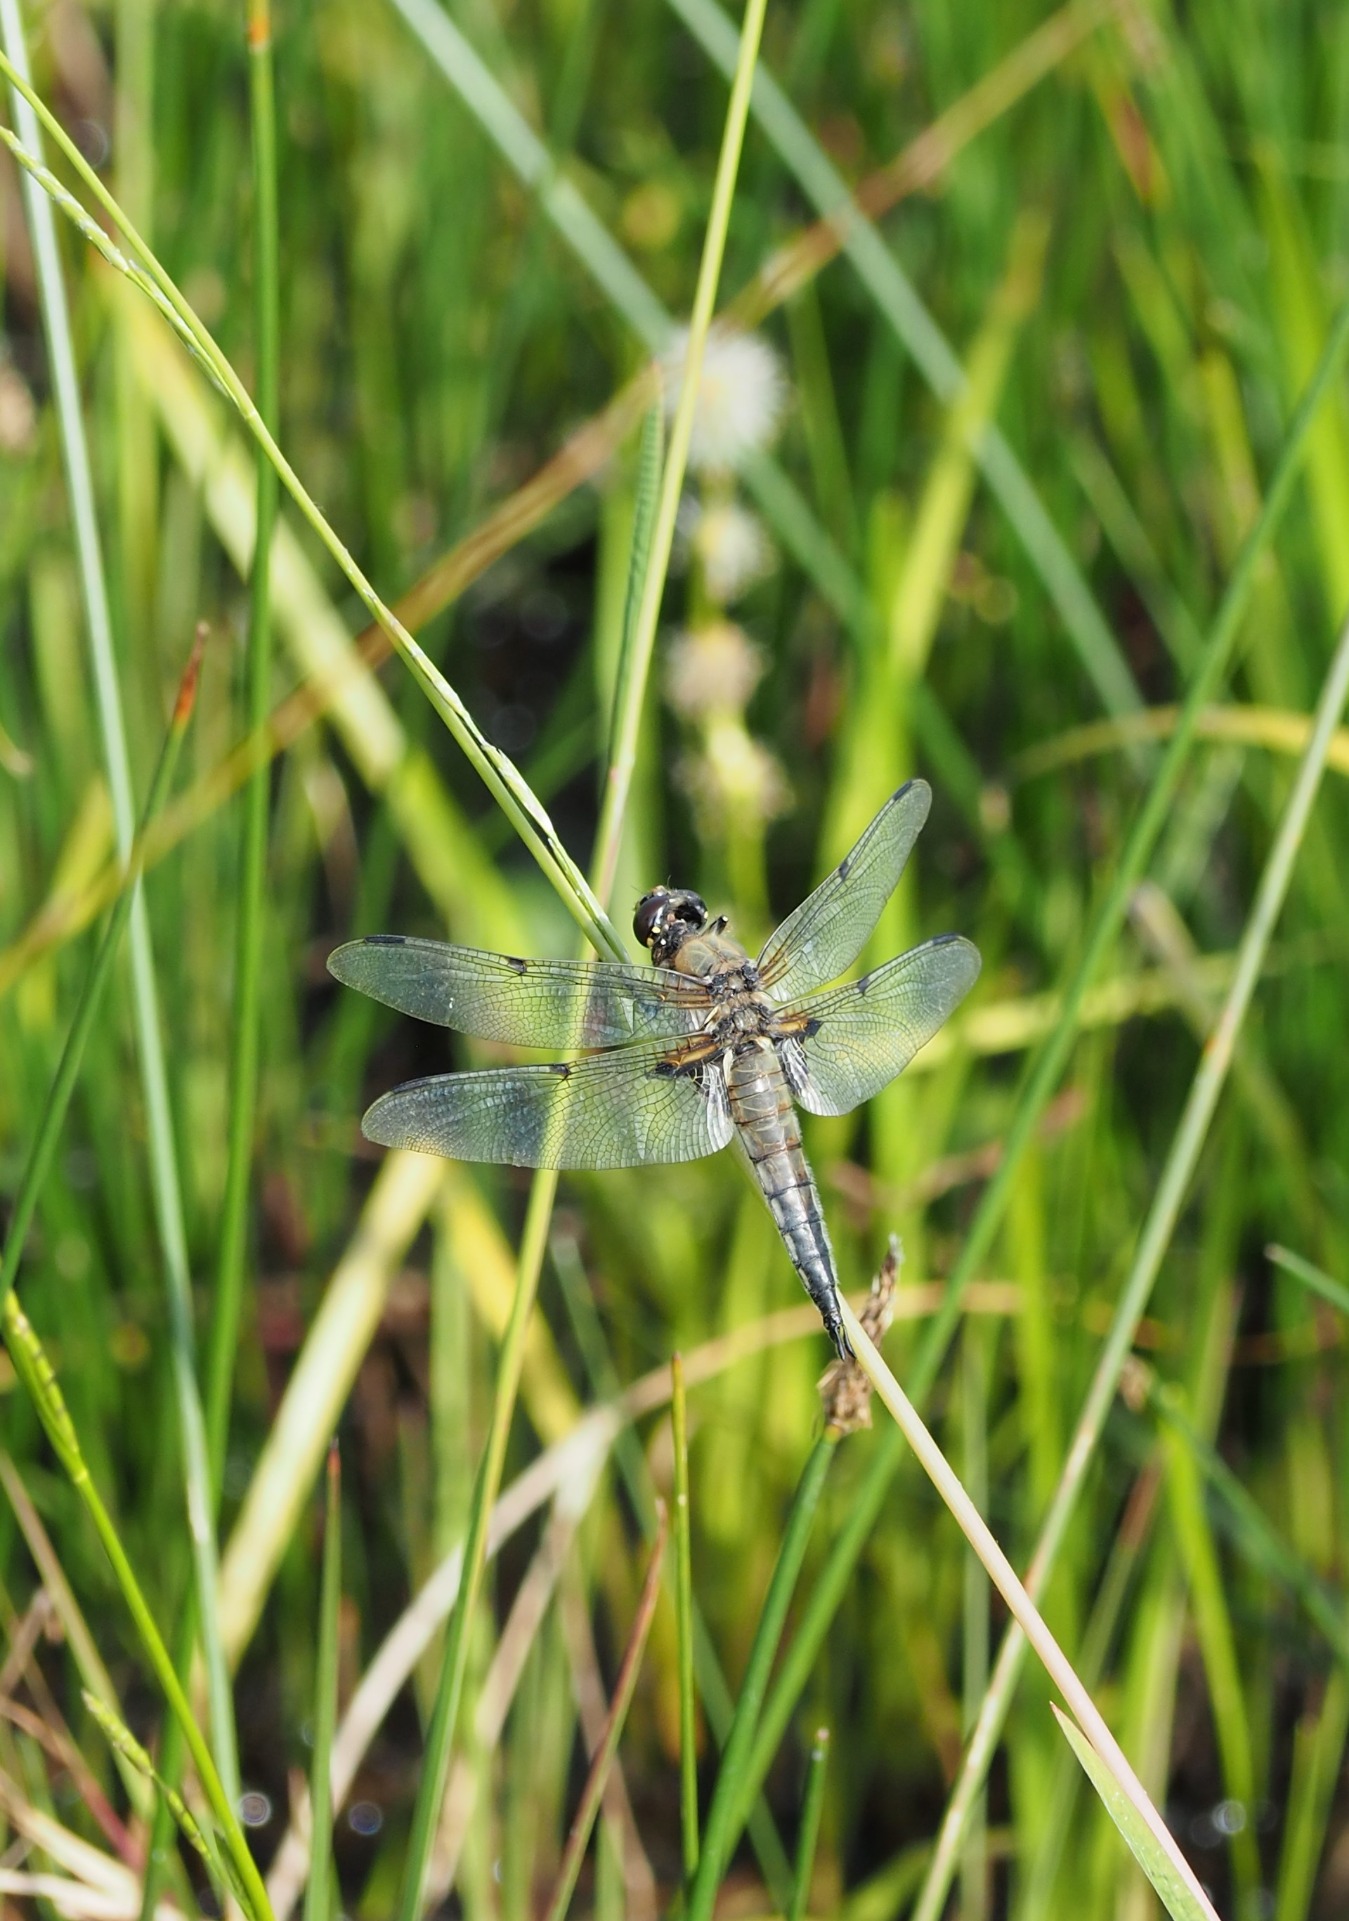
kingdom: Animalia
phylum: Arthropoda
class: Insecta
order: Odonata
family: Libellulidae
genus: Libellula
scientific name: Libellula quadrimaculata
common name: Fireplettet libel
